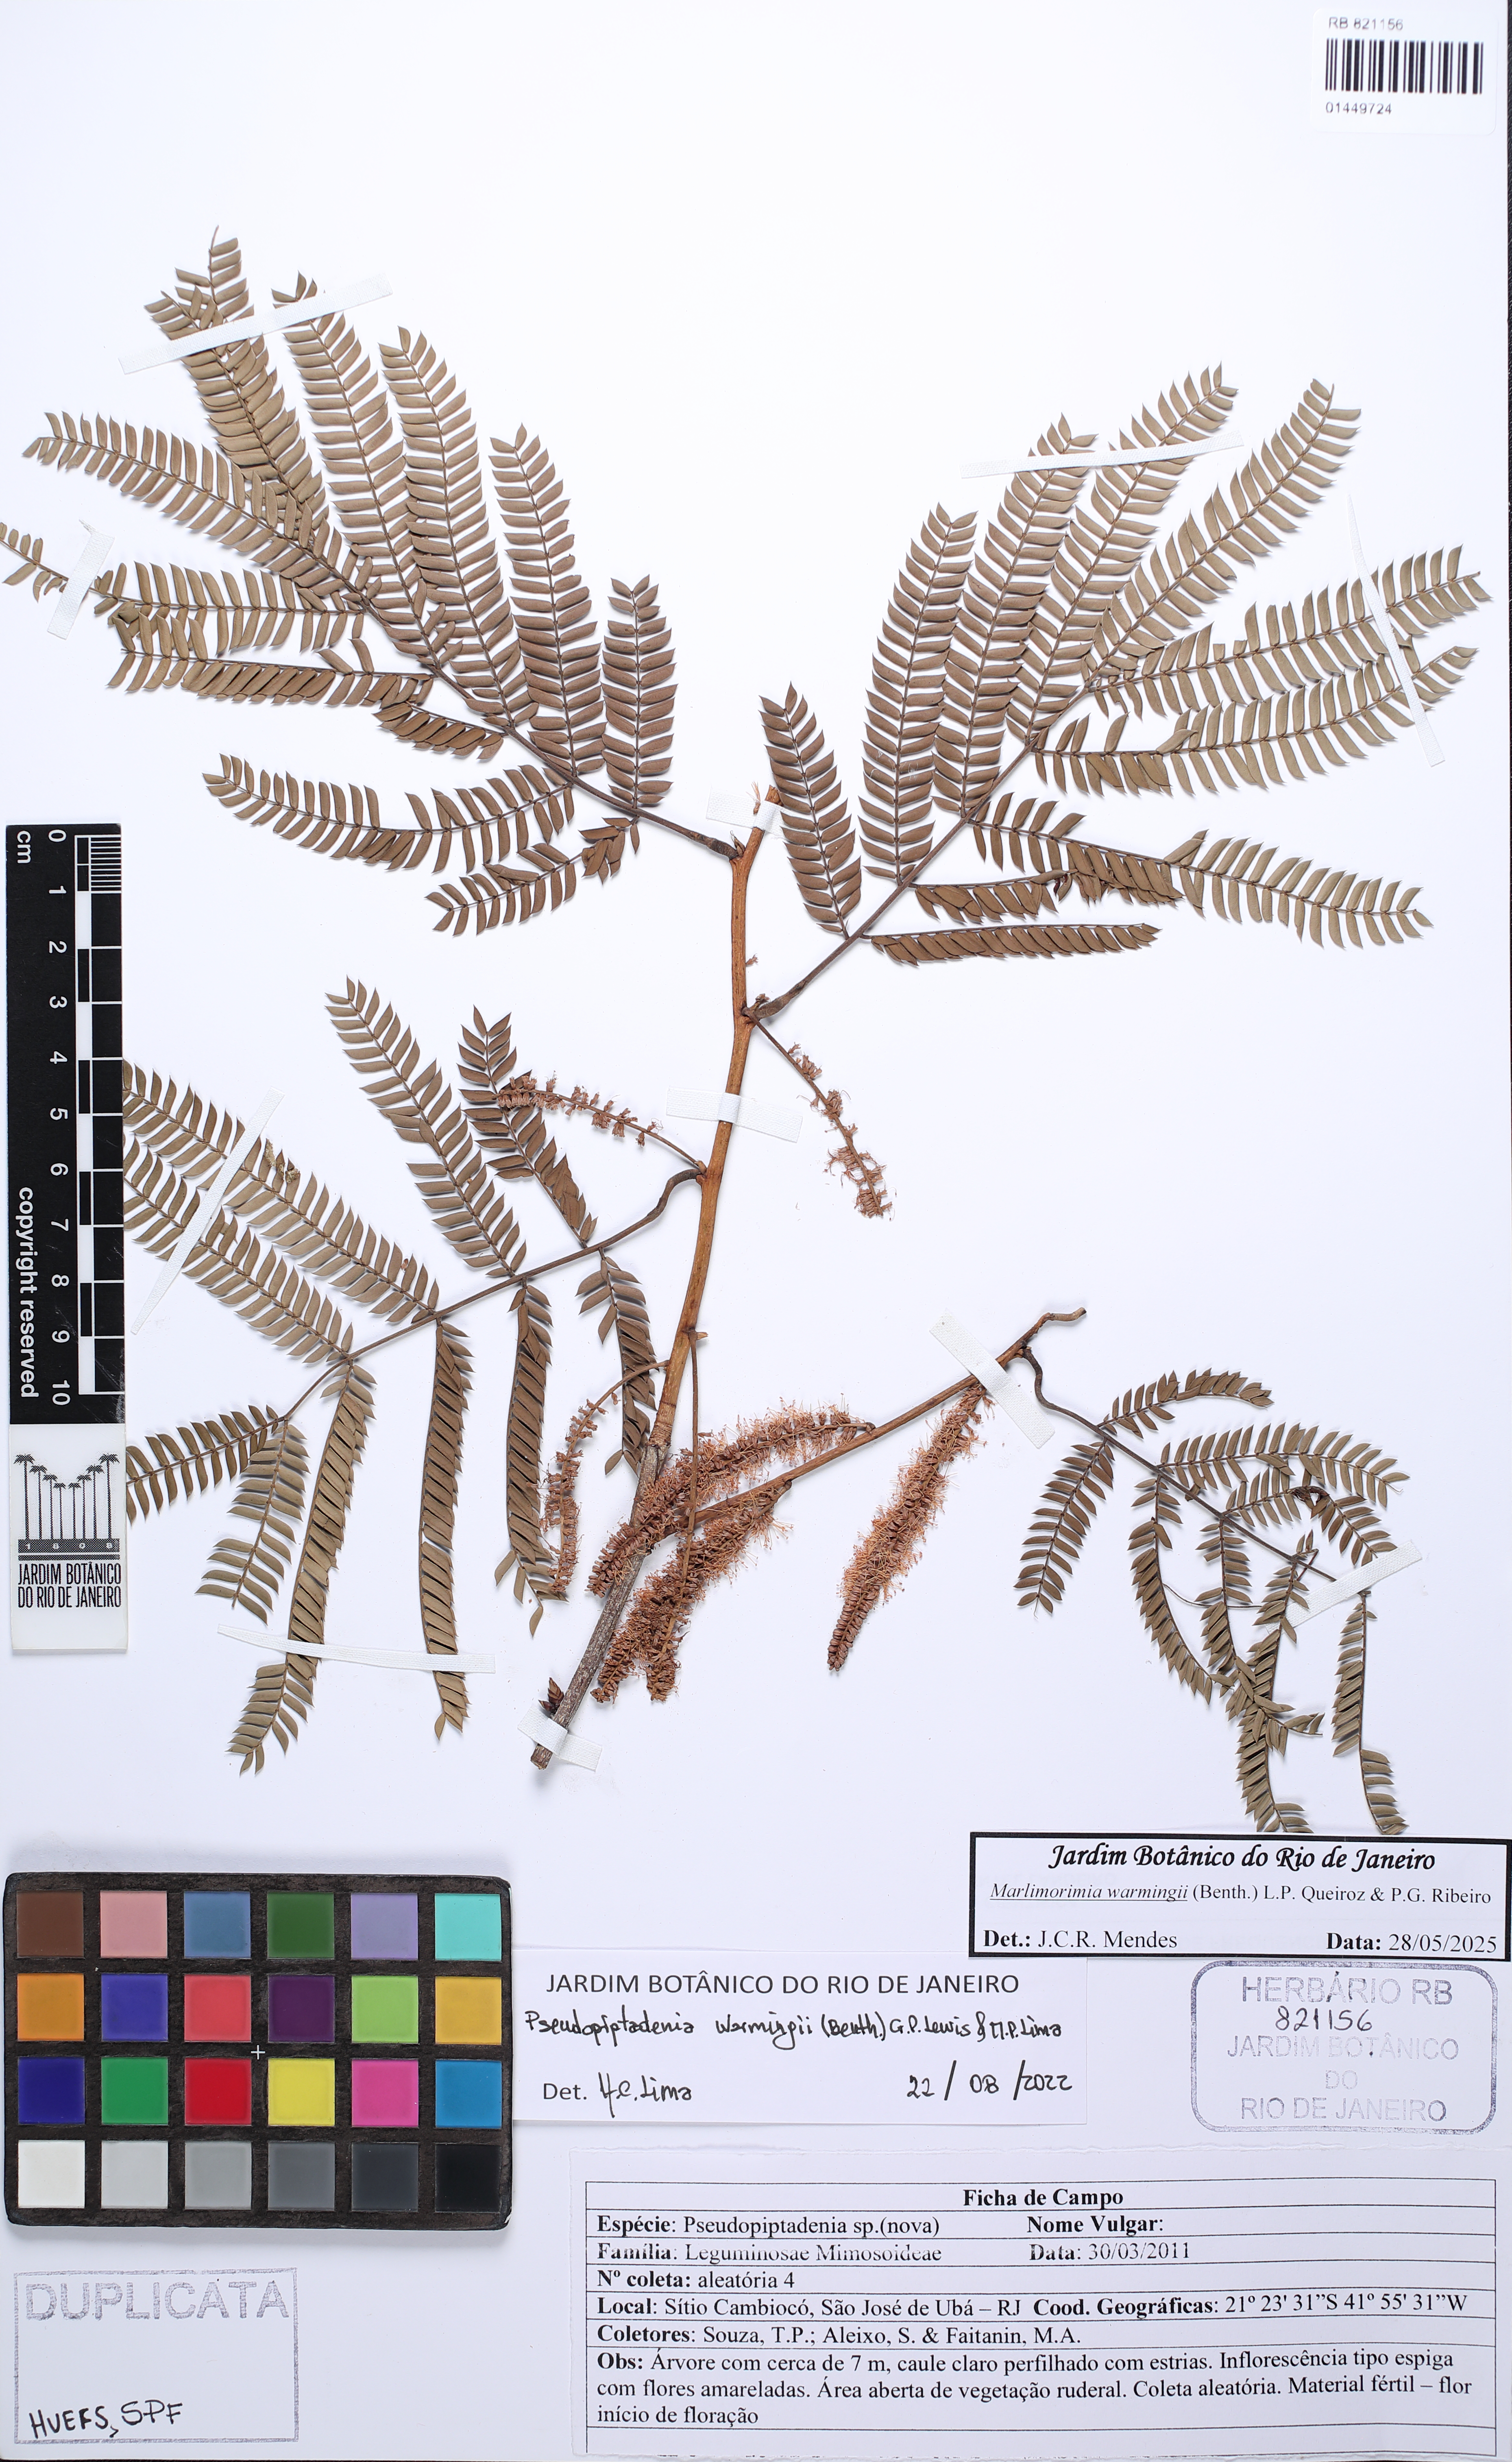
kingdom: Plantae
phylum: Tracheophyta
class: Magnoliopsida
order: Fabales
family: Fabaceae
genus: Pseudopiptadenia
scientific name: Pseudopiptadenia warmingii
